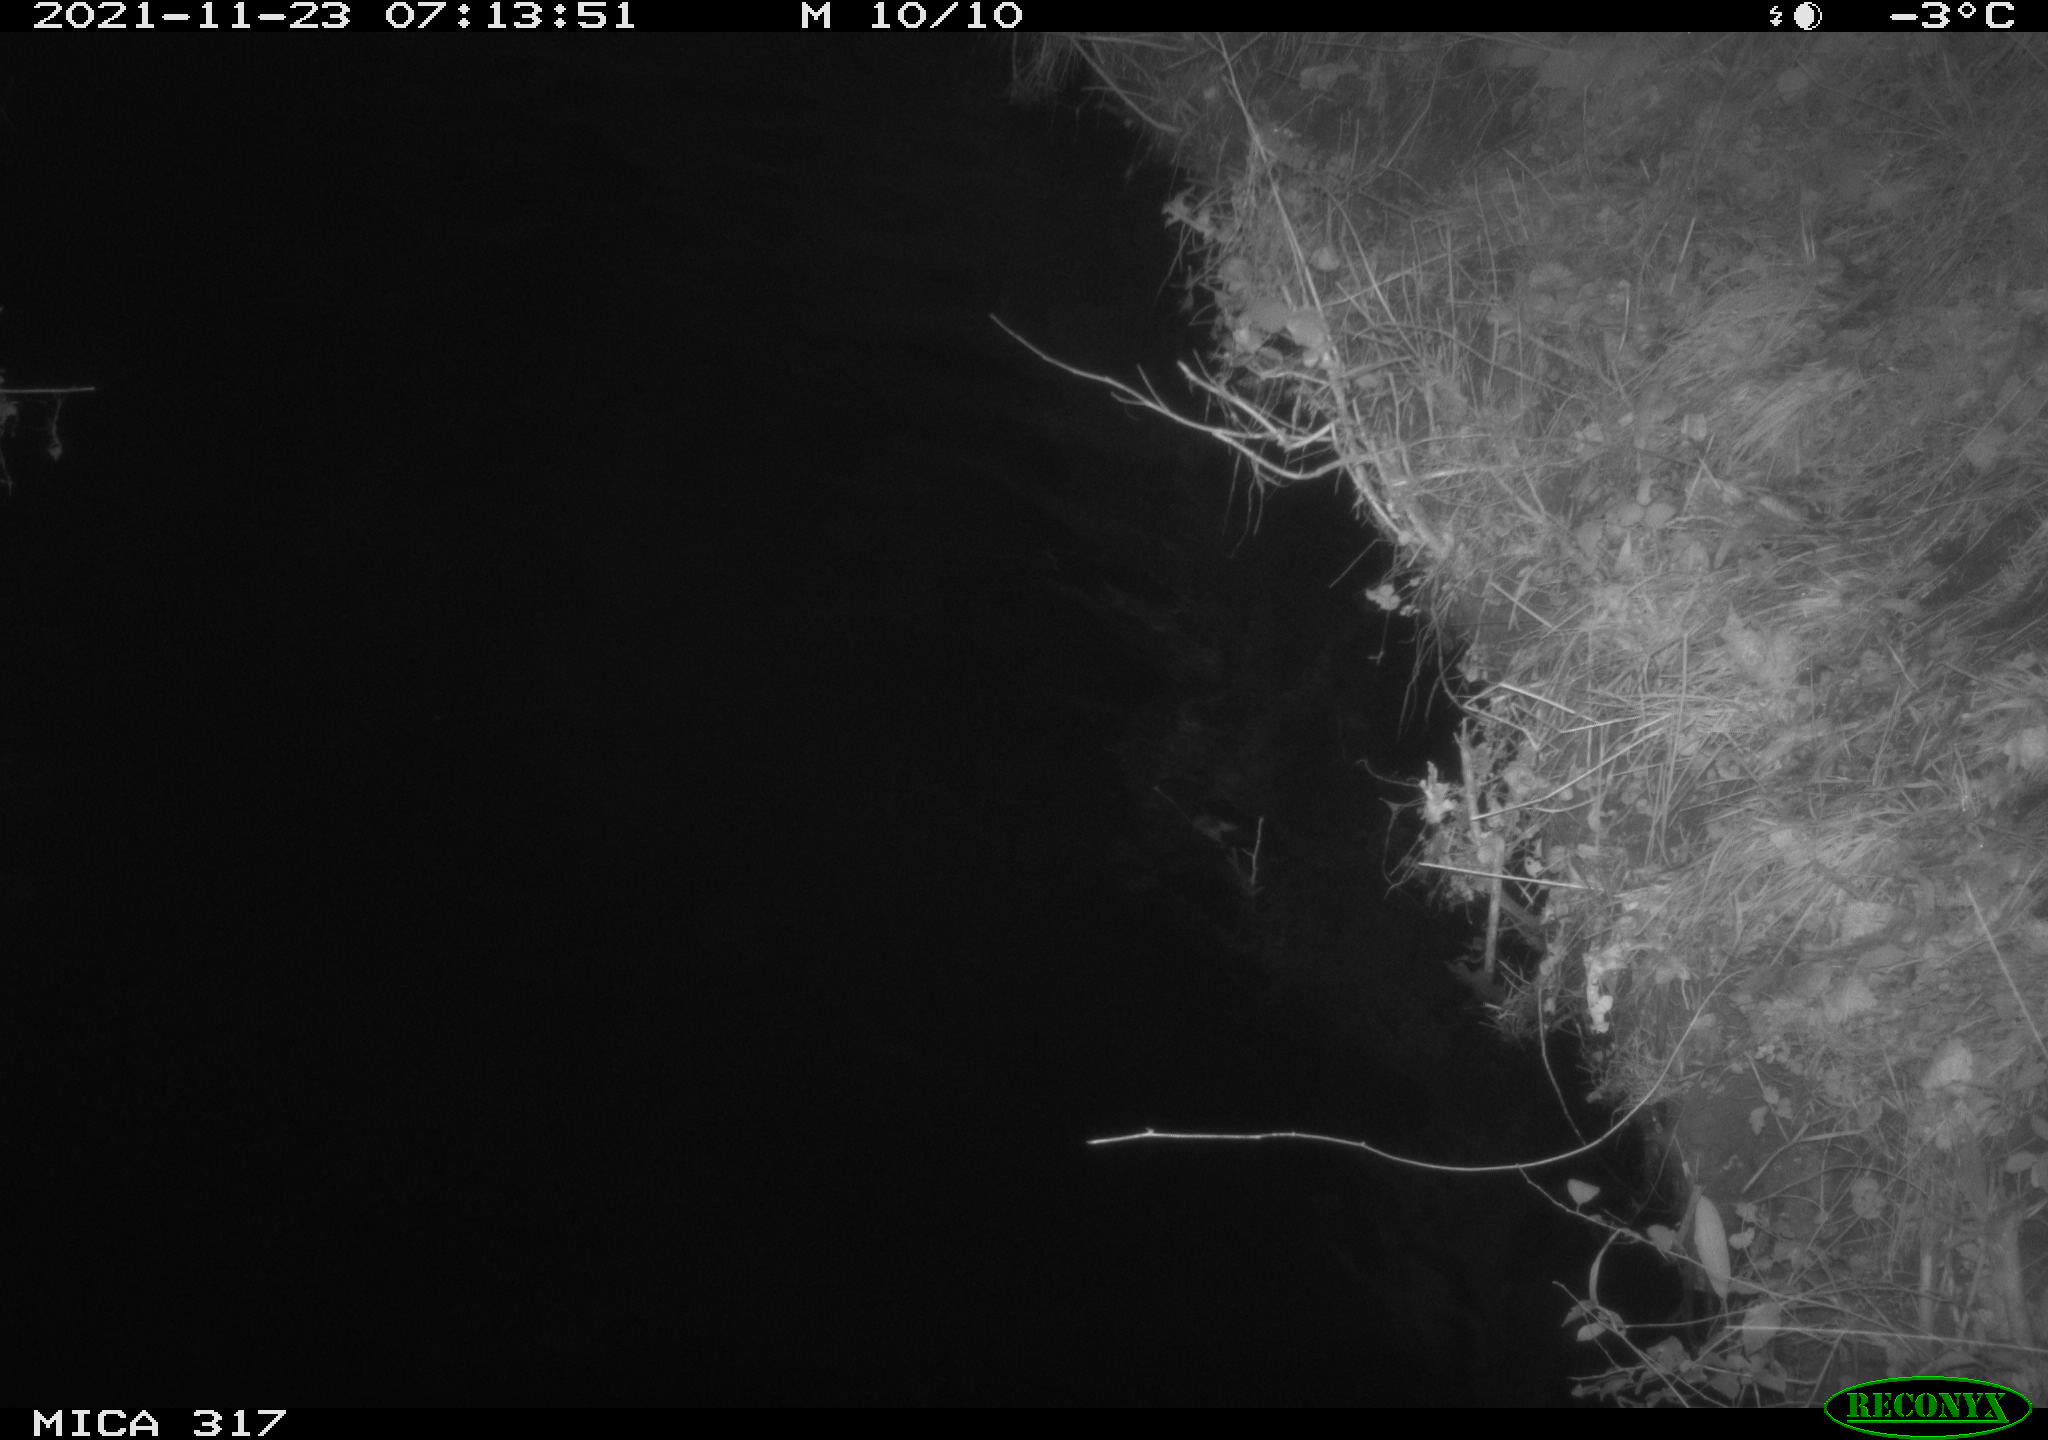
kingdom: Animalia
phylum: Chordata
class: Aves
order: Anseriformes
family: Anatidae
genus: Anas
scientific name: Anas platyrhynchos
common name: Mallard
